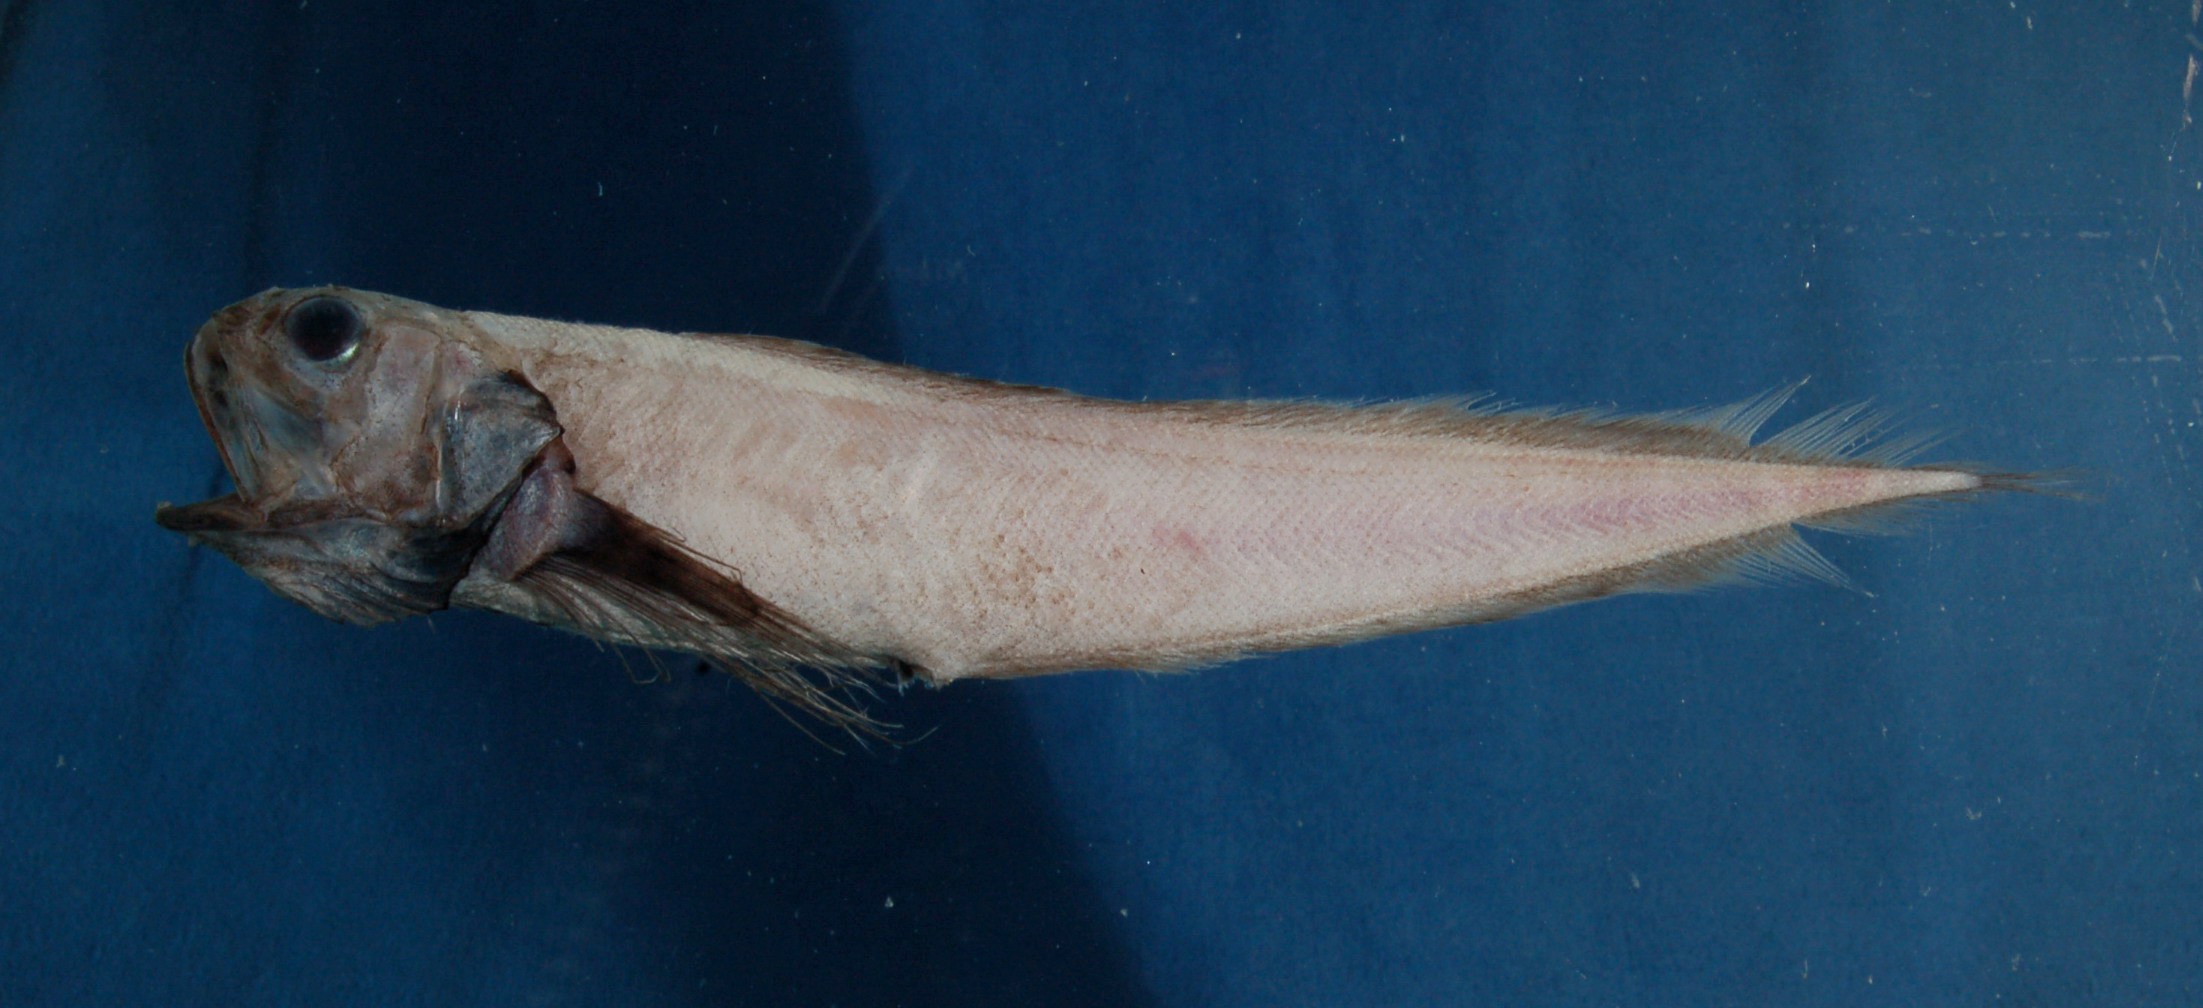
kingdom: Animalia
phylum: Chordata
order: Ophidiiformes
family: Ophidiidae
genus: Dicrolene
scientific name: Dicrolene multifilis
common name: Slender brotula
